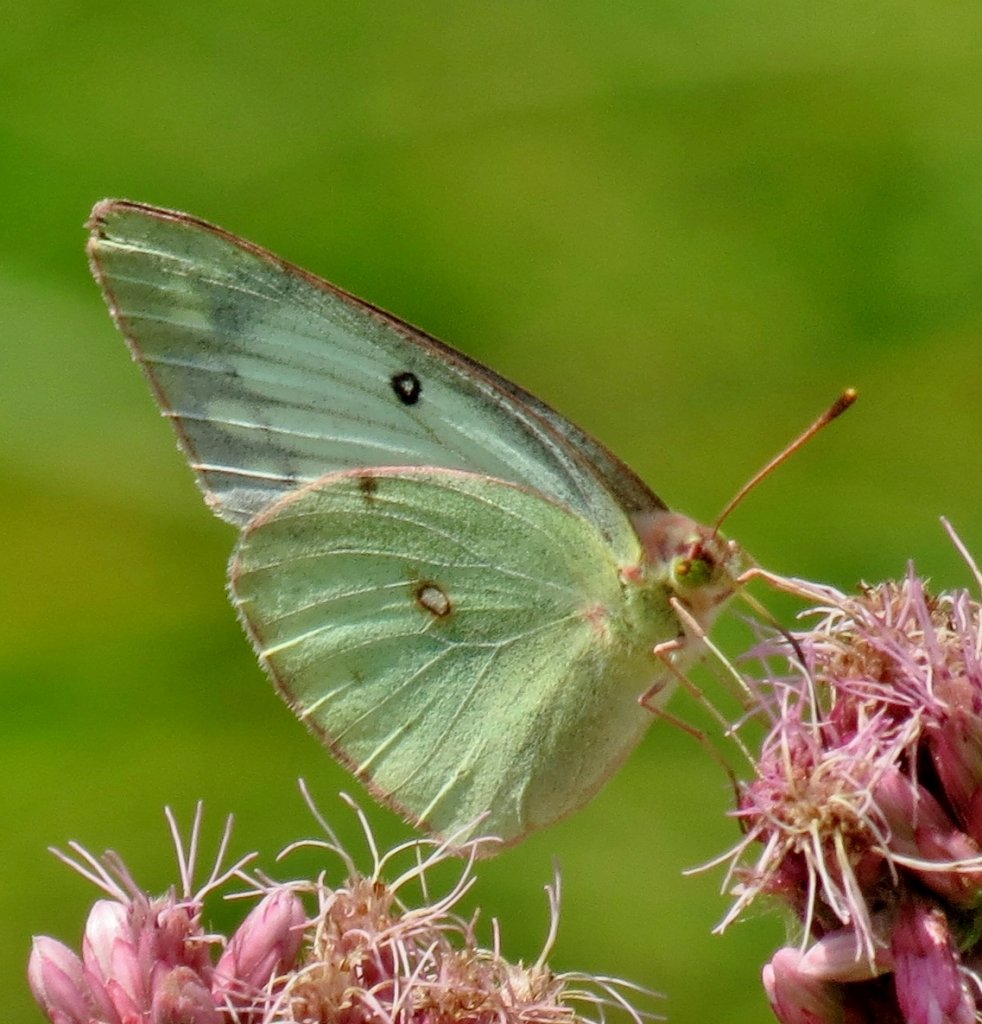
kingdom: Animalia
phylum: Arthropoda
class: Insecta
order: Lepidoptera
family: Pieridae
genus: Colias
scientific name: Colias philodice
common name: Clouded Sulphur
